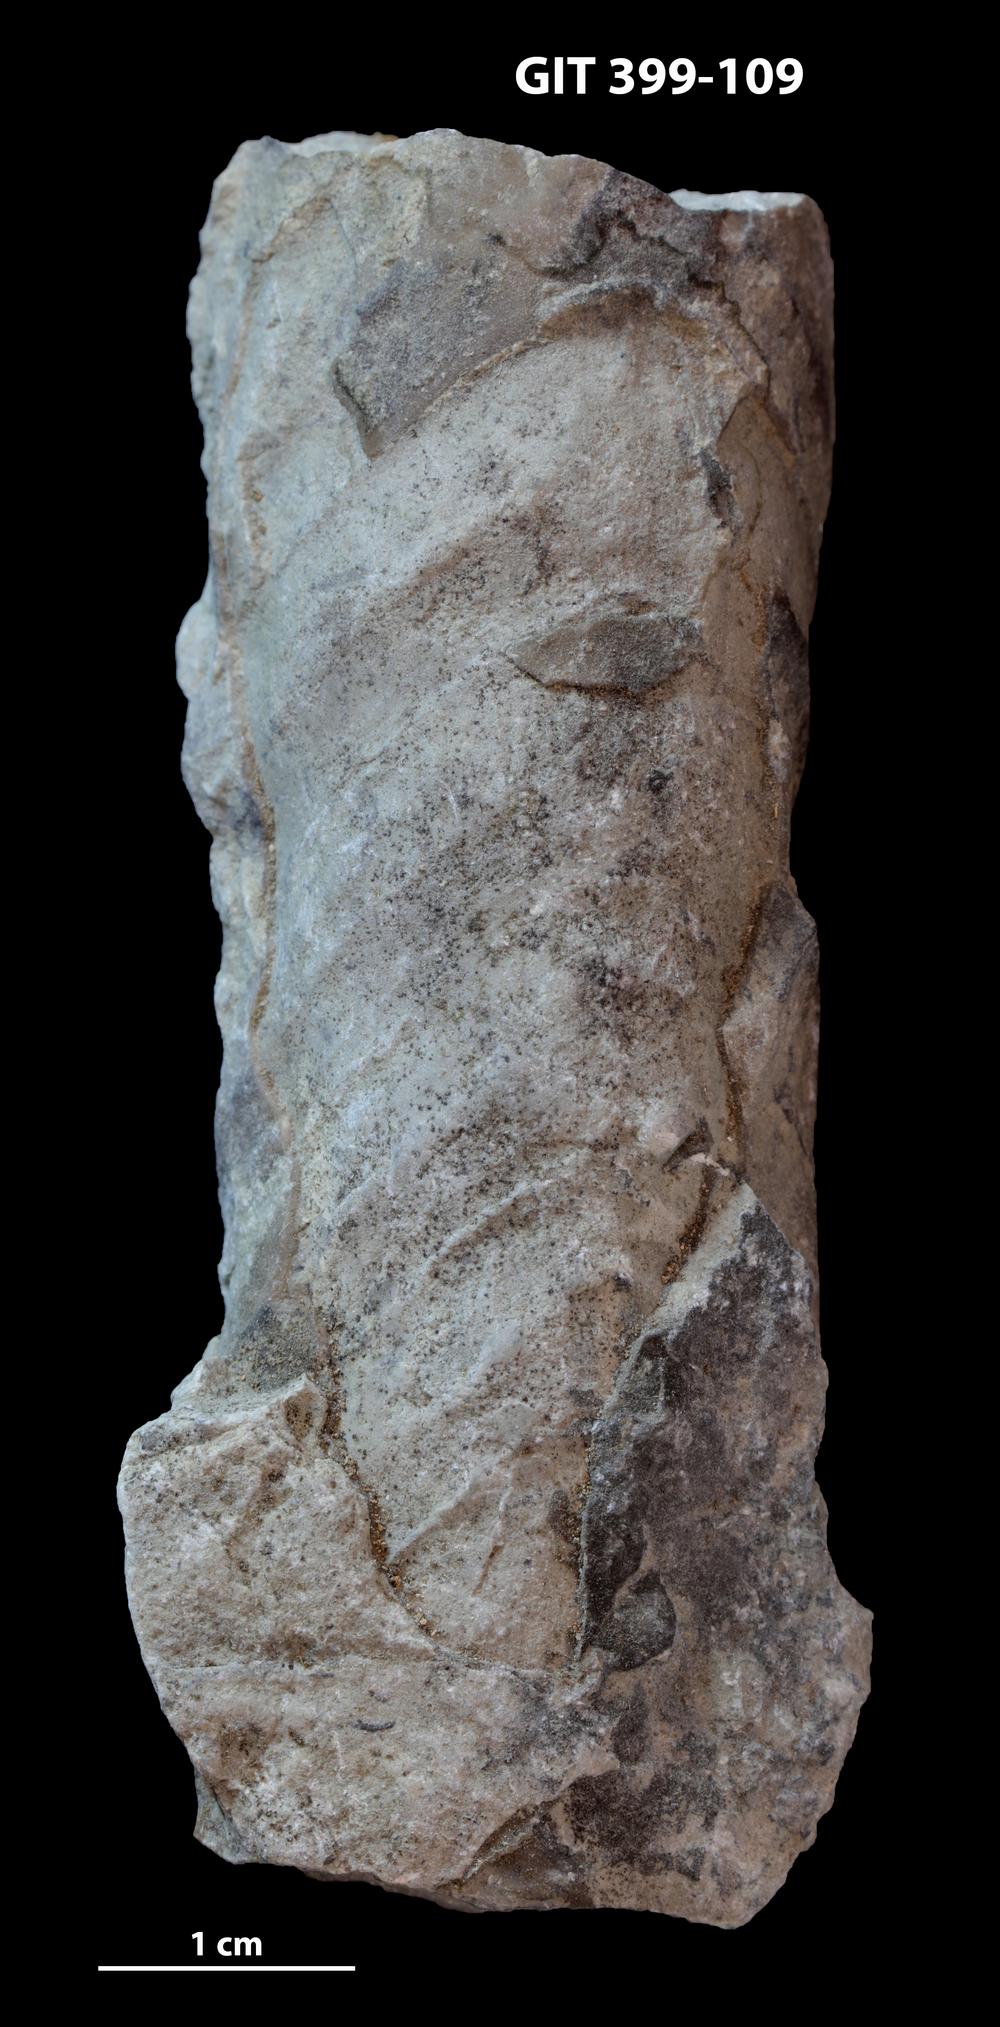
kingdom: Animalia
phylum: Mollusca
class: Cephalopoda
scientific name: Cephalopoda
